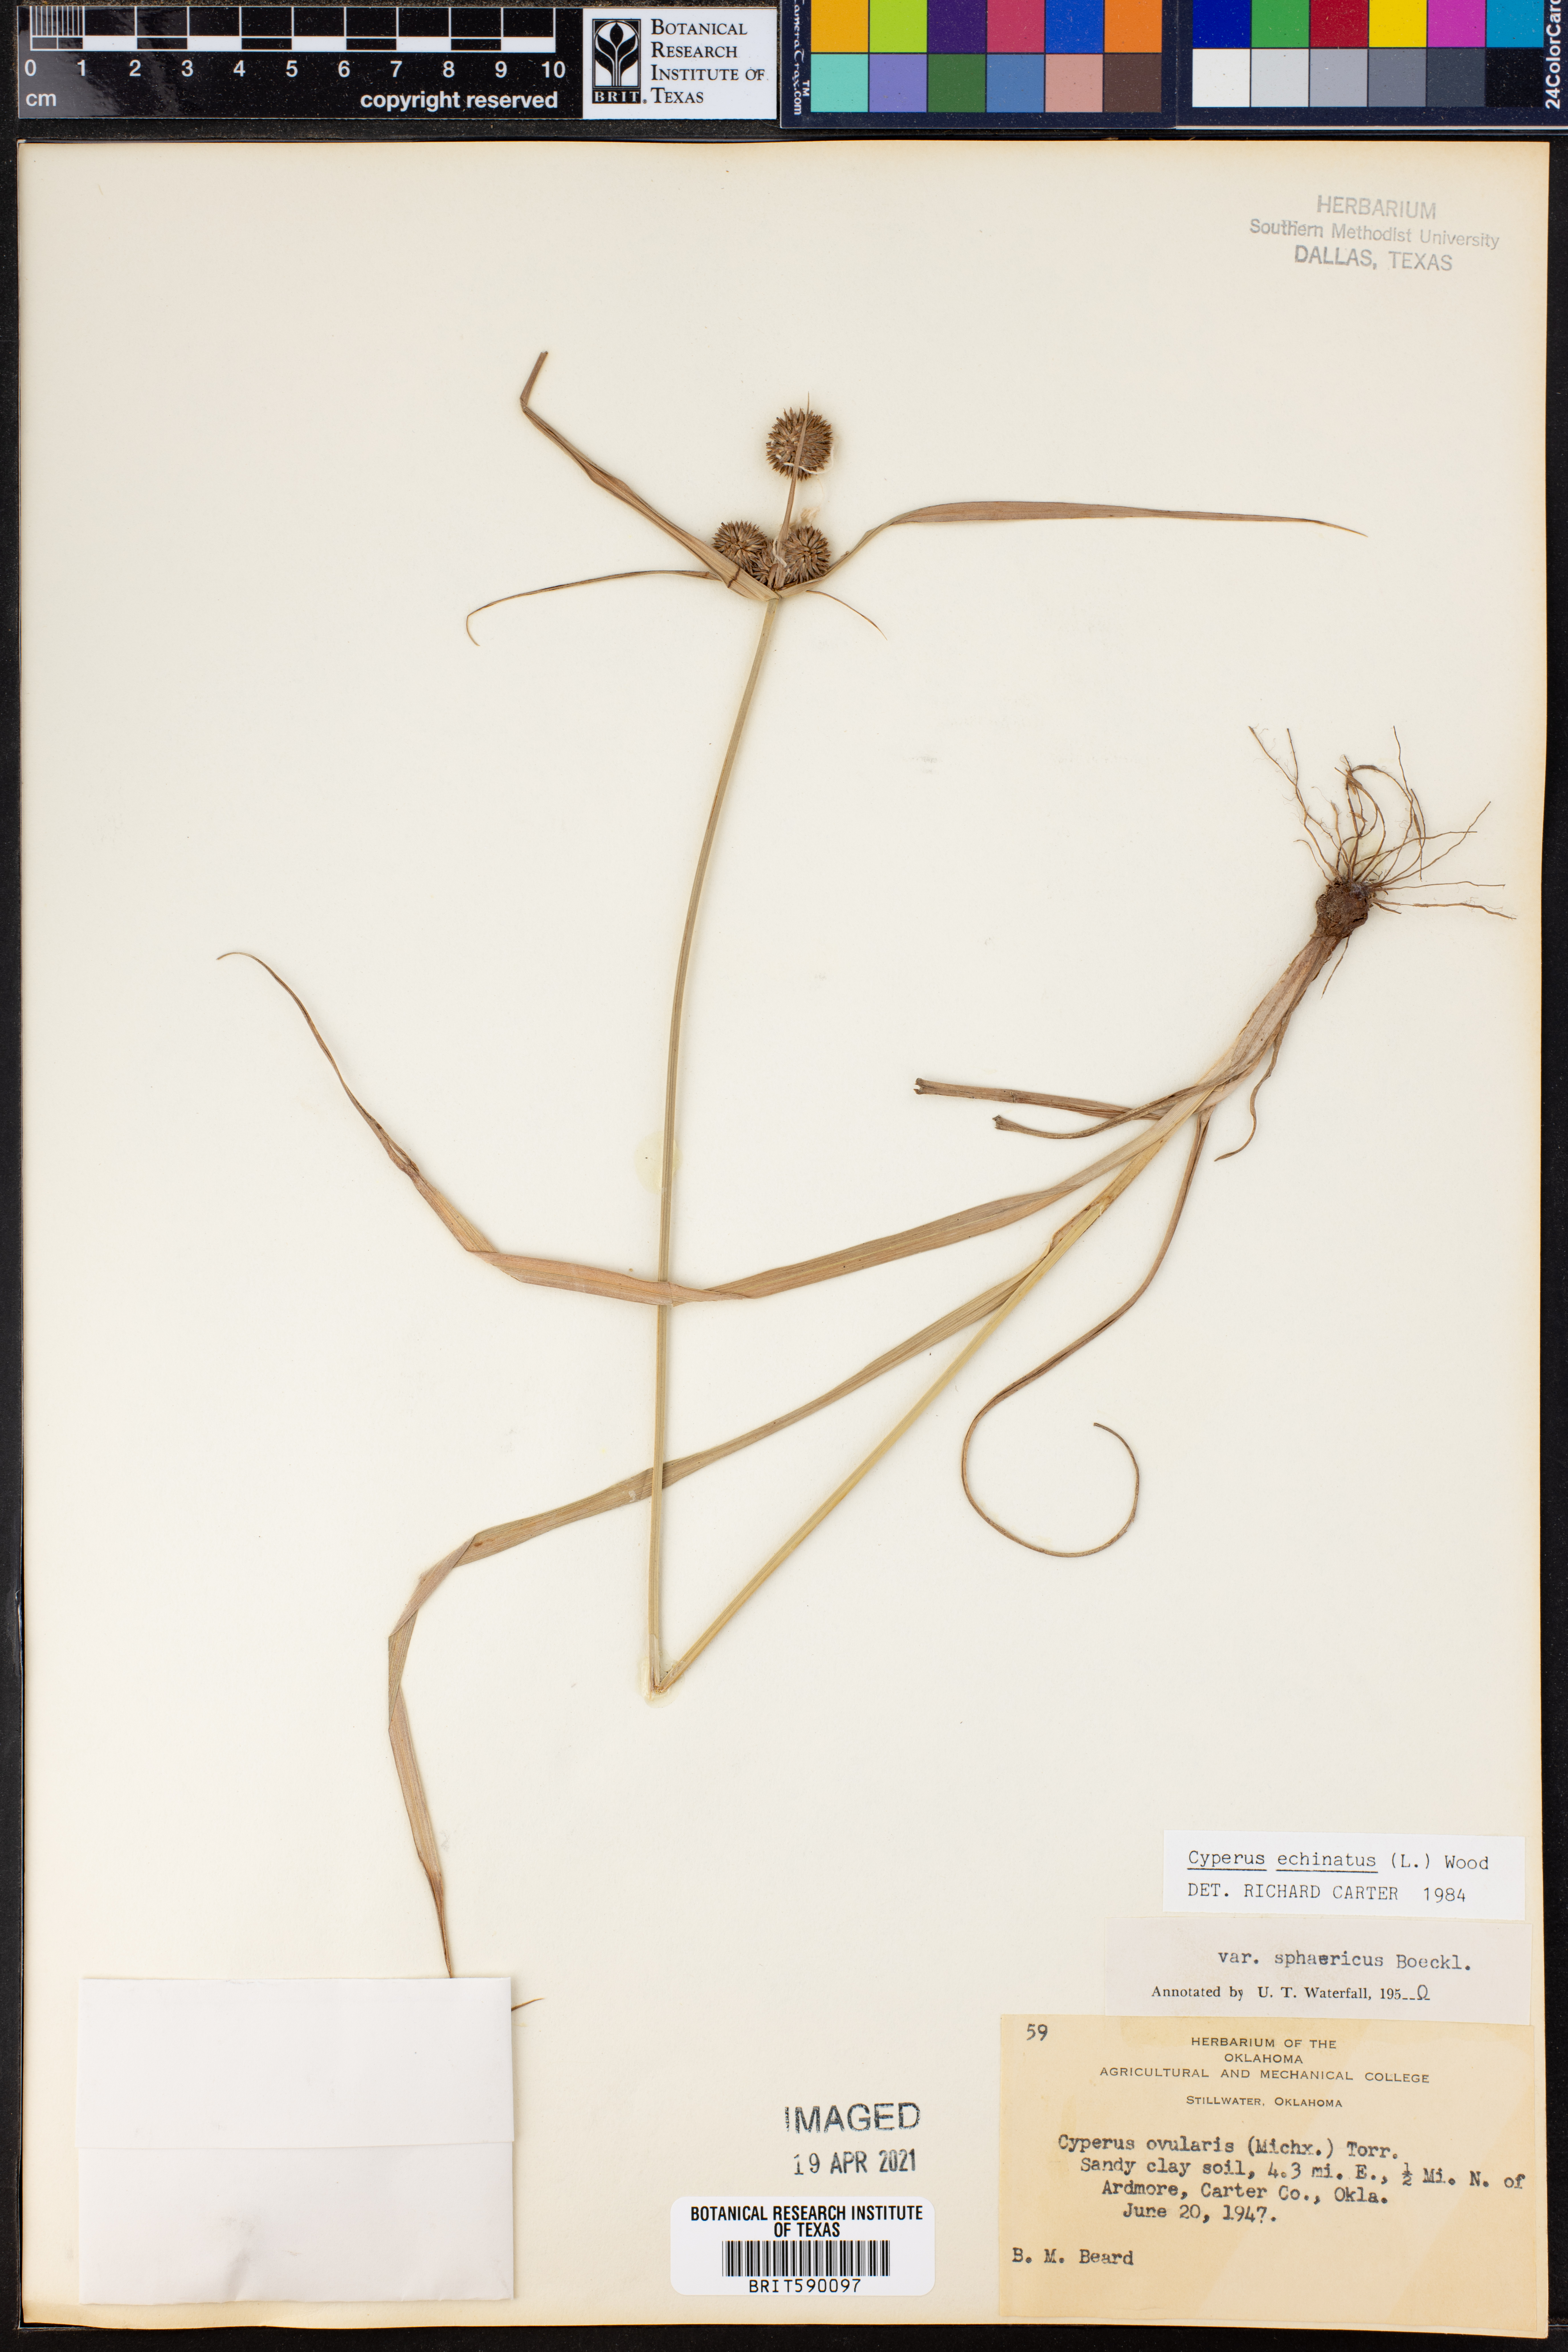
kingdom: Plantae
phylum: Tracheophyta
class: Liliopsida
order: Poales
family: Cyperaceae
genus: Cyperus
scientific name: Cyperus echinatus
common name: Teasel sedge
